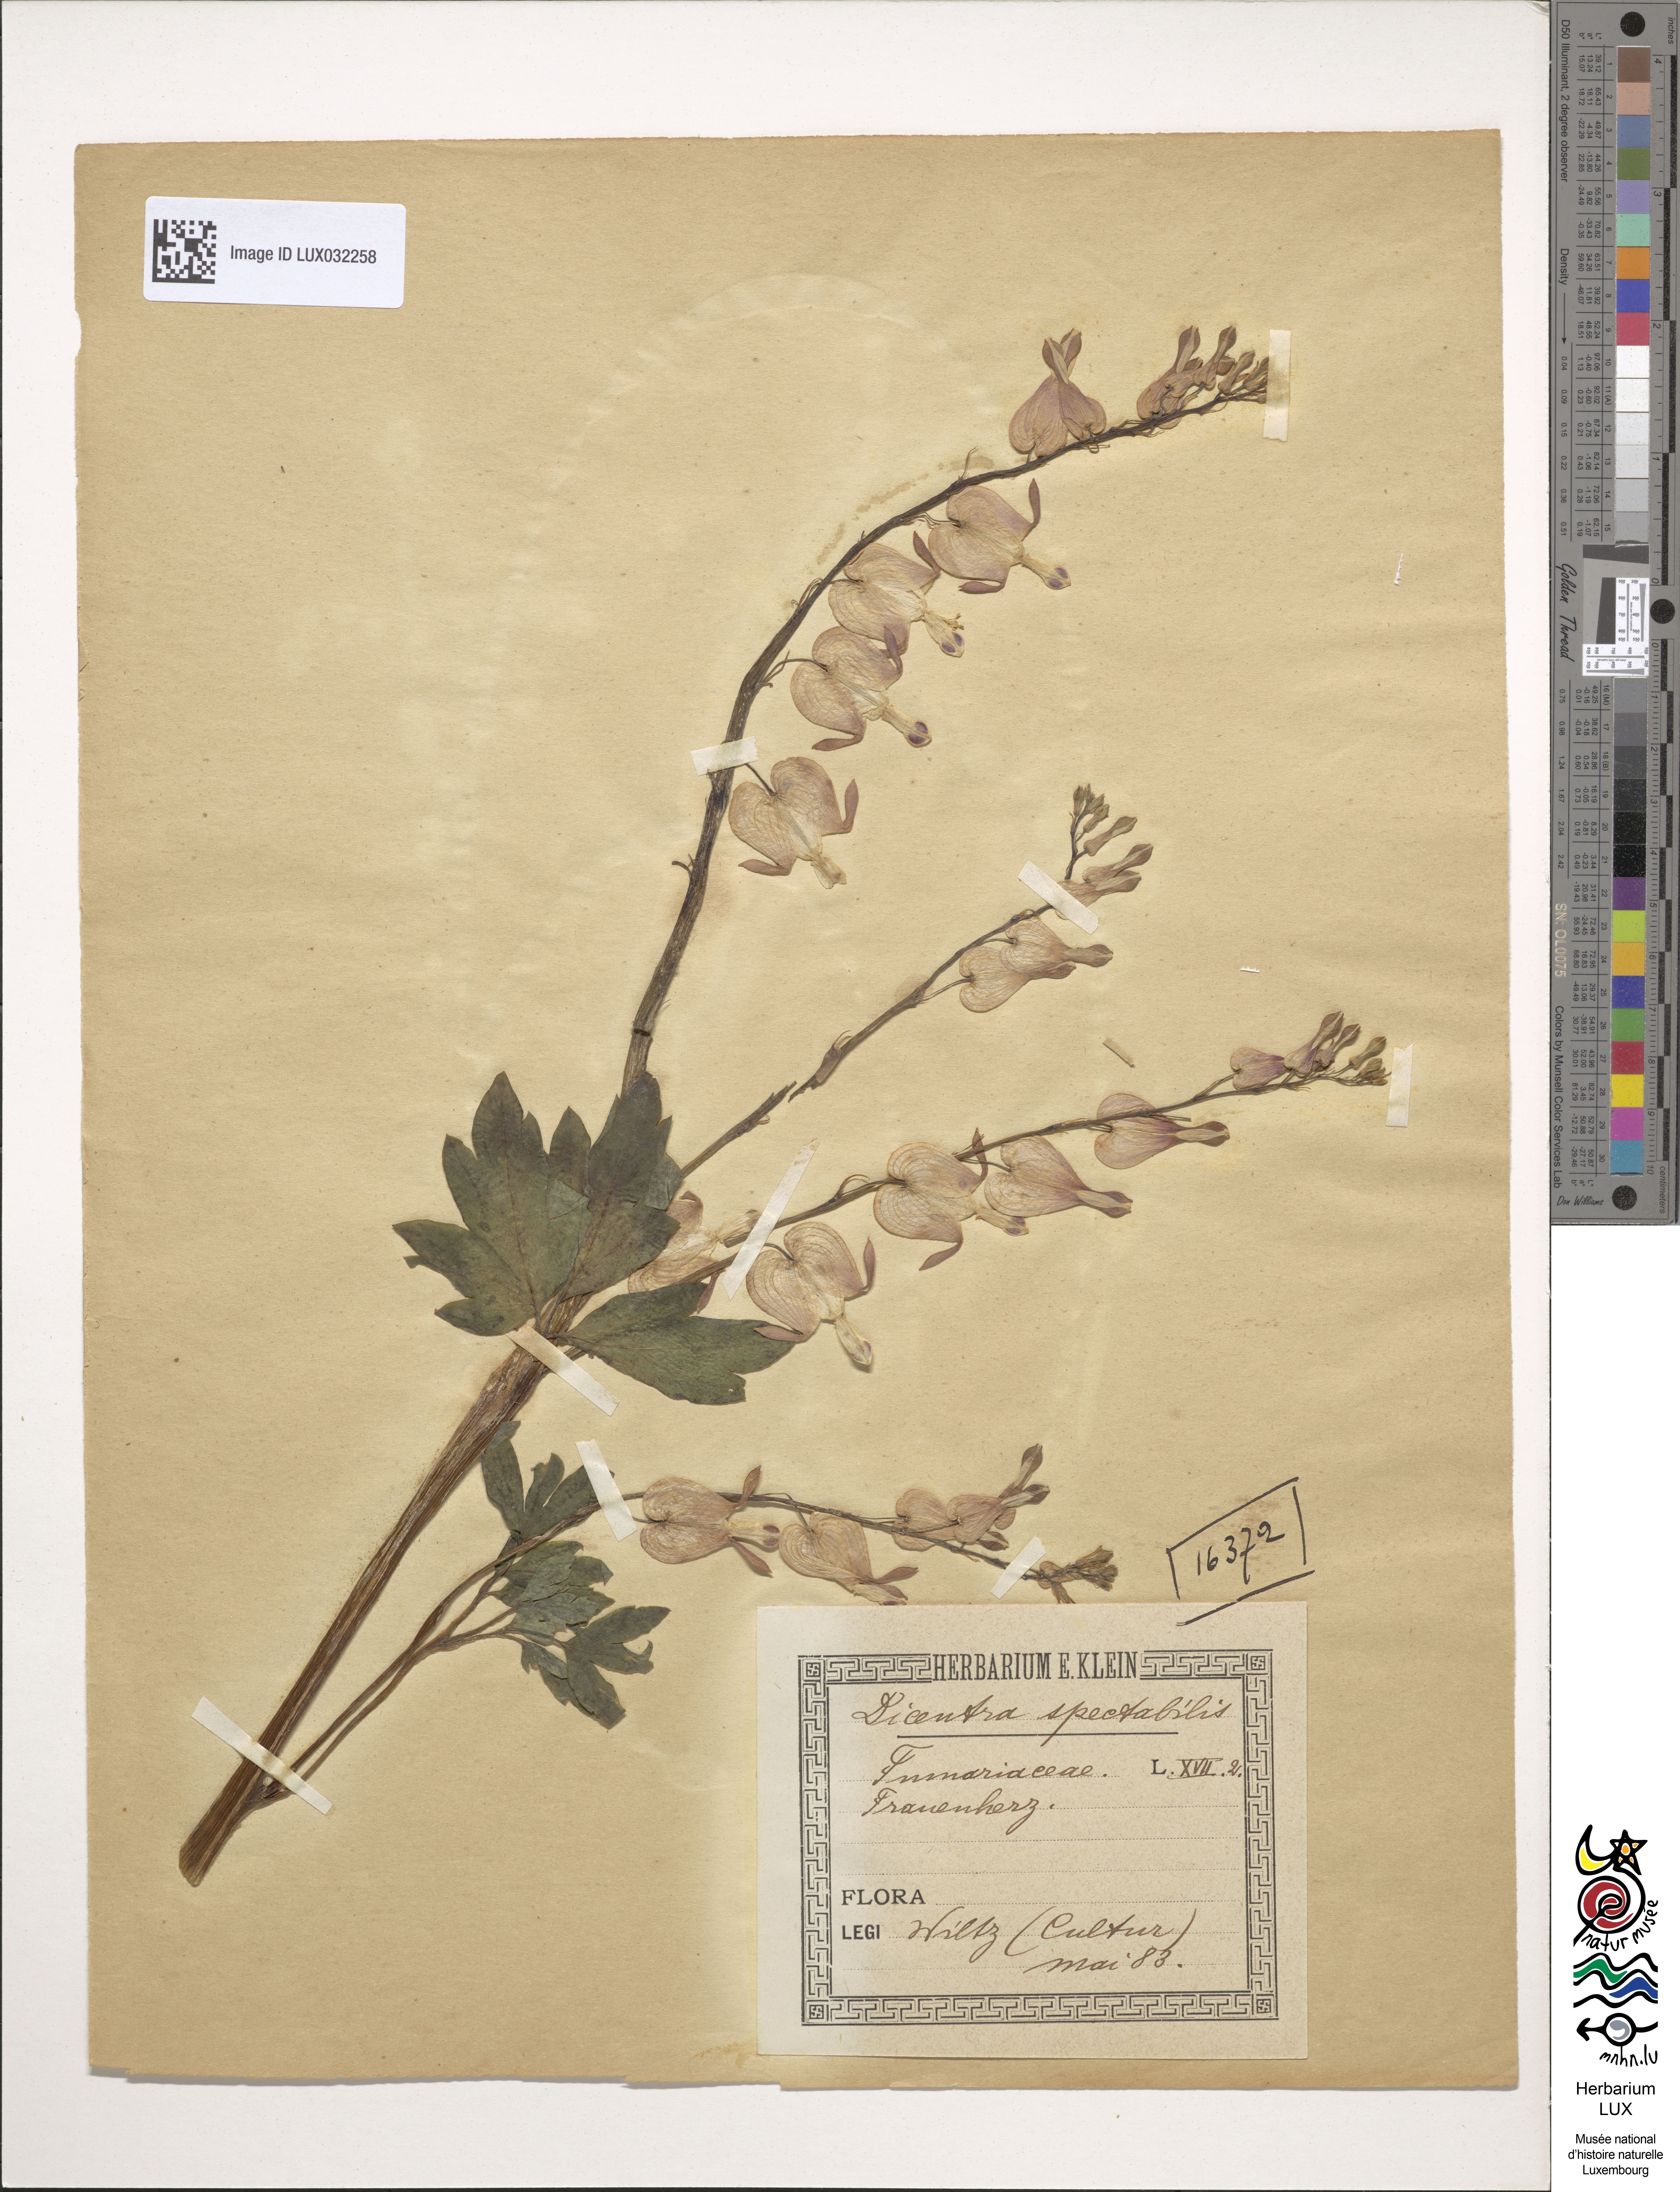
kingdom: Plantae
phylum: Tracheophyta
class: Magnoliopsida
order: Ranunculales
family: Papaveraceae
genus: Lamprocapnos
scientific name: Lamprocapnos spectabilis
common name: Asian bleeding-heart
